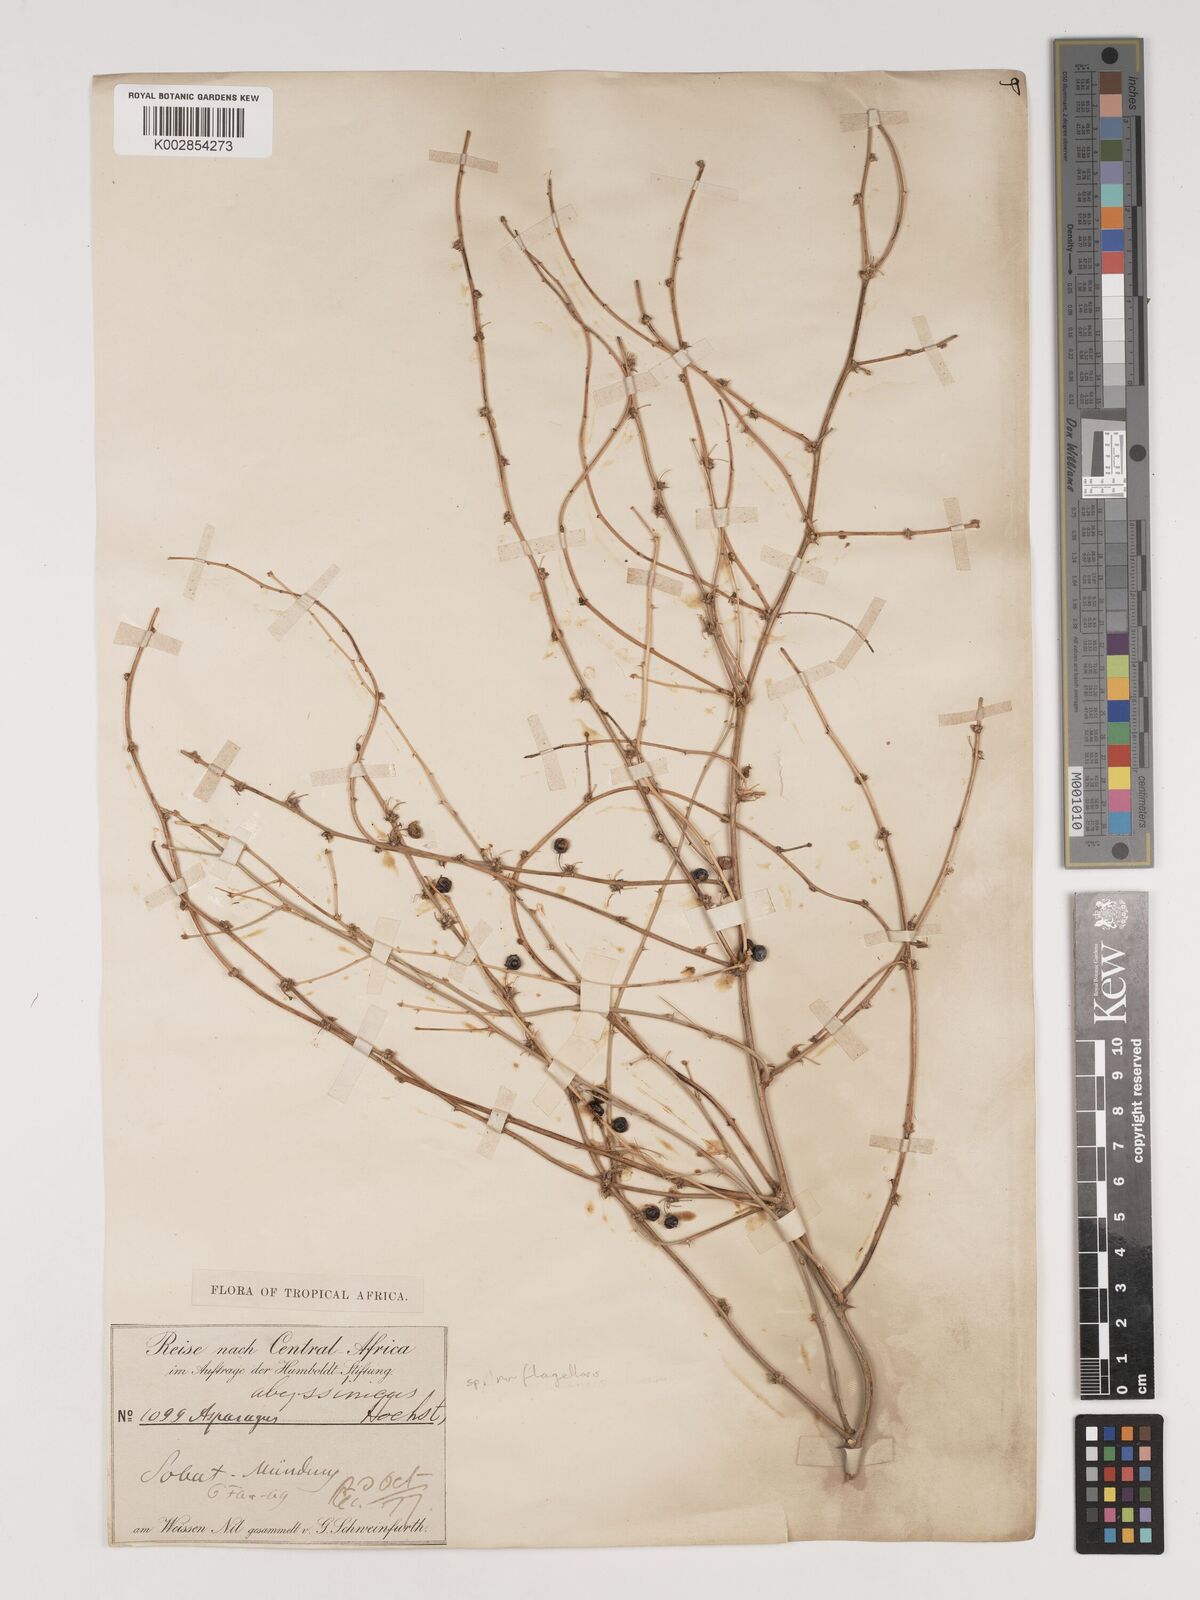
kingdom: Plantae
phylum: Tracheophyta
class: Liliopsida
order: Asparagales
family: Asparagaceae
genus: Asparagus
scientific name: Asparagus africanus
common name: Asparagus-fern
